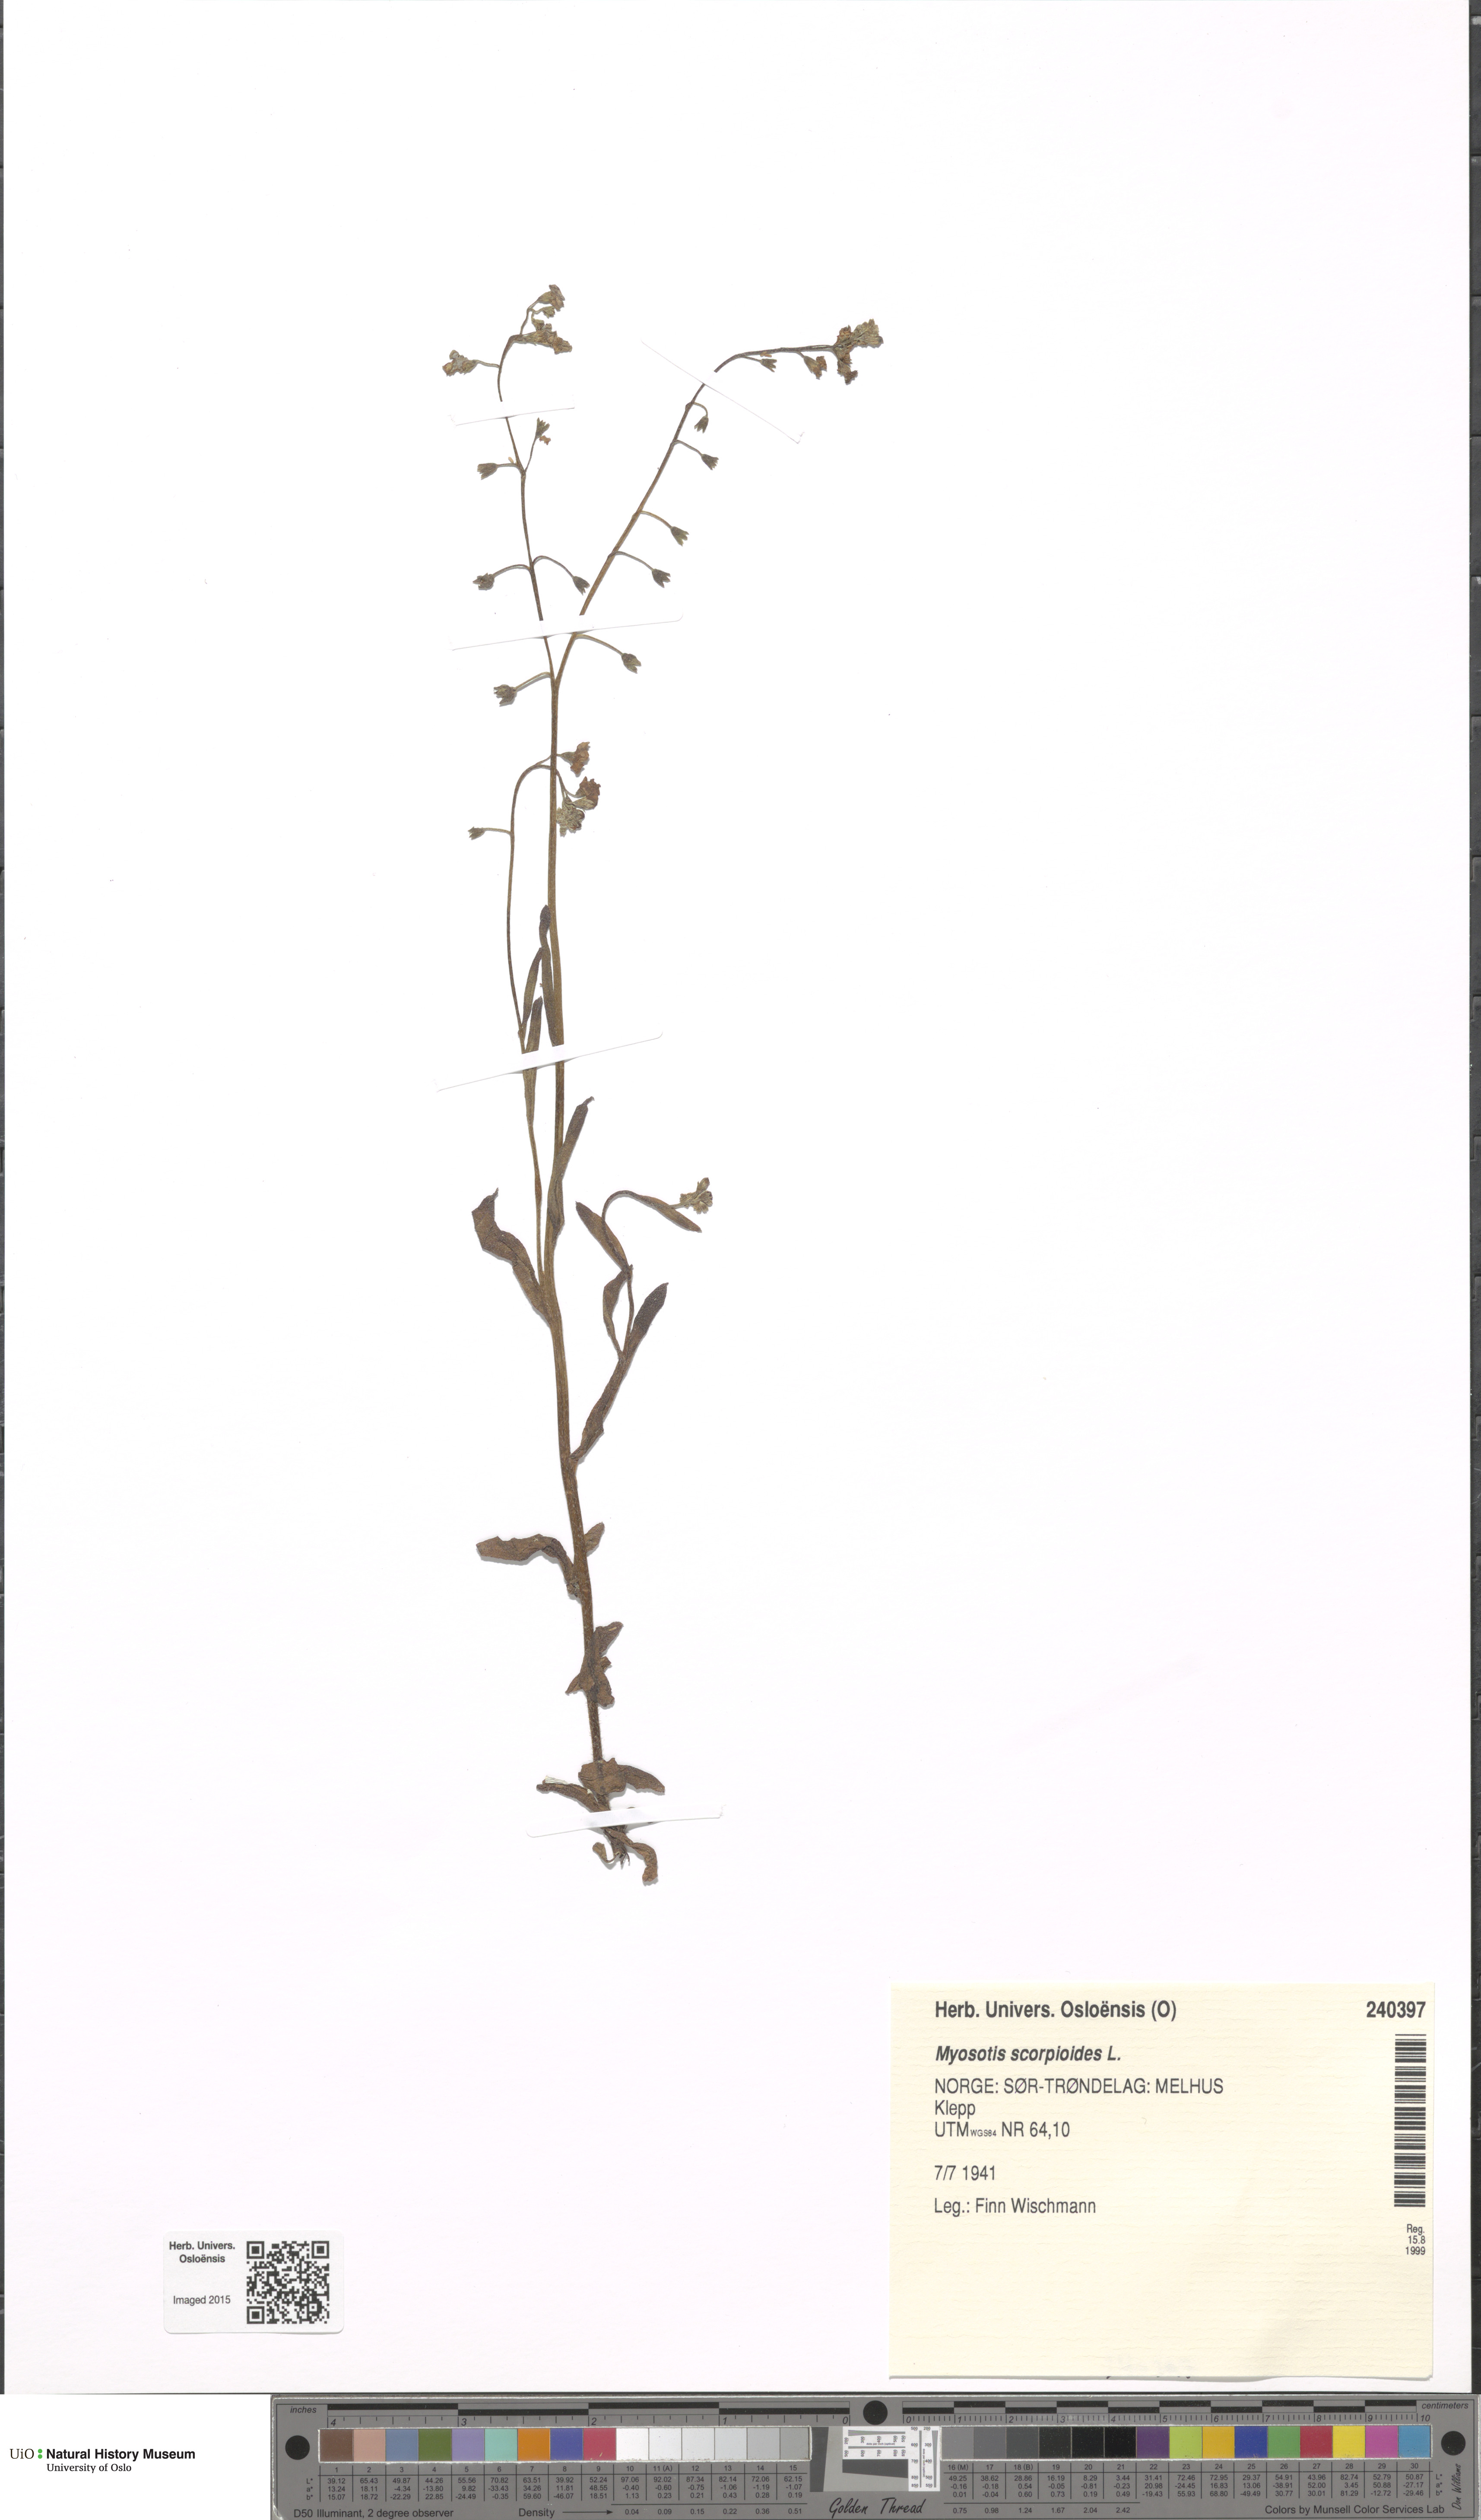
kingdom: Plantae
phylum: Tracheophyta
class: Magnoliopsida
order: Boraginales
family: Boraginaceae
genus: Myosotis
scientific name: Myosotis scorpioides
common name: Water forget-me-not
